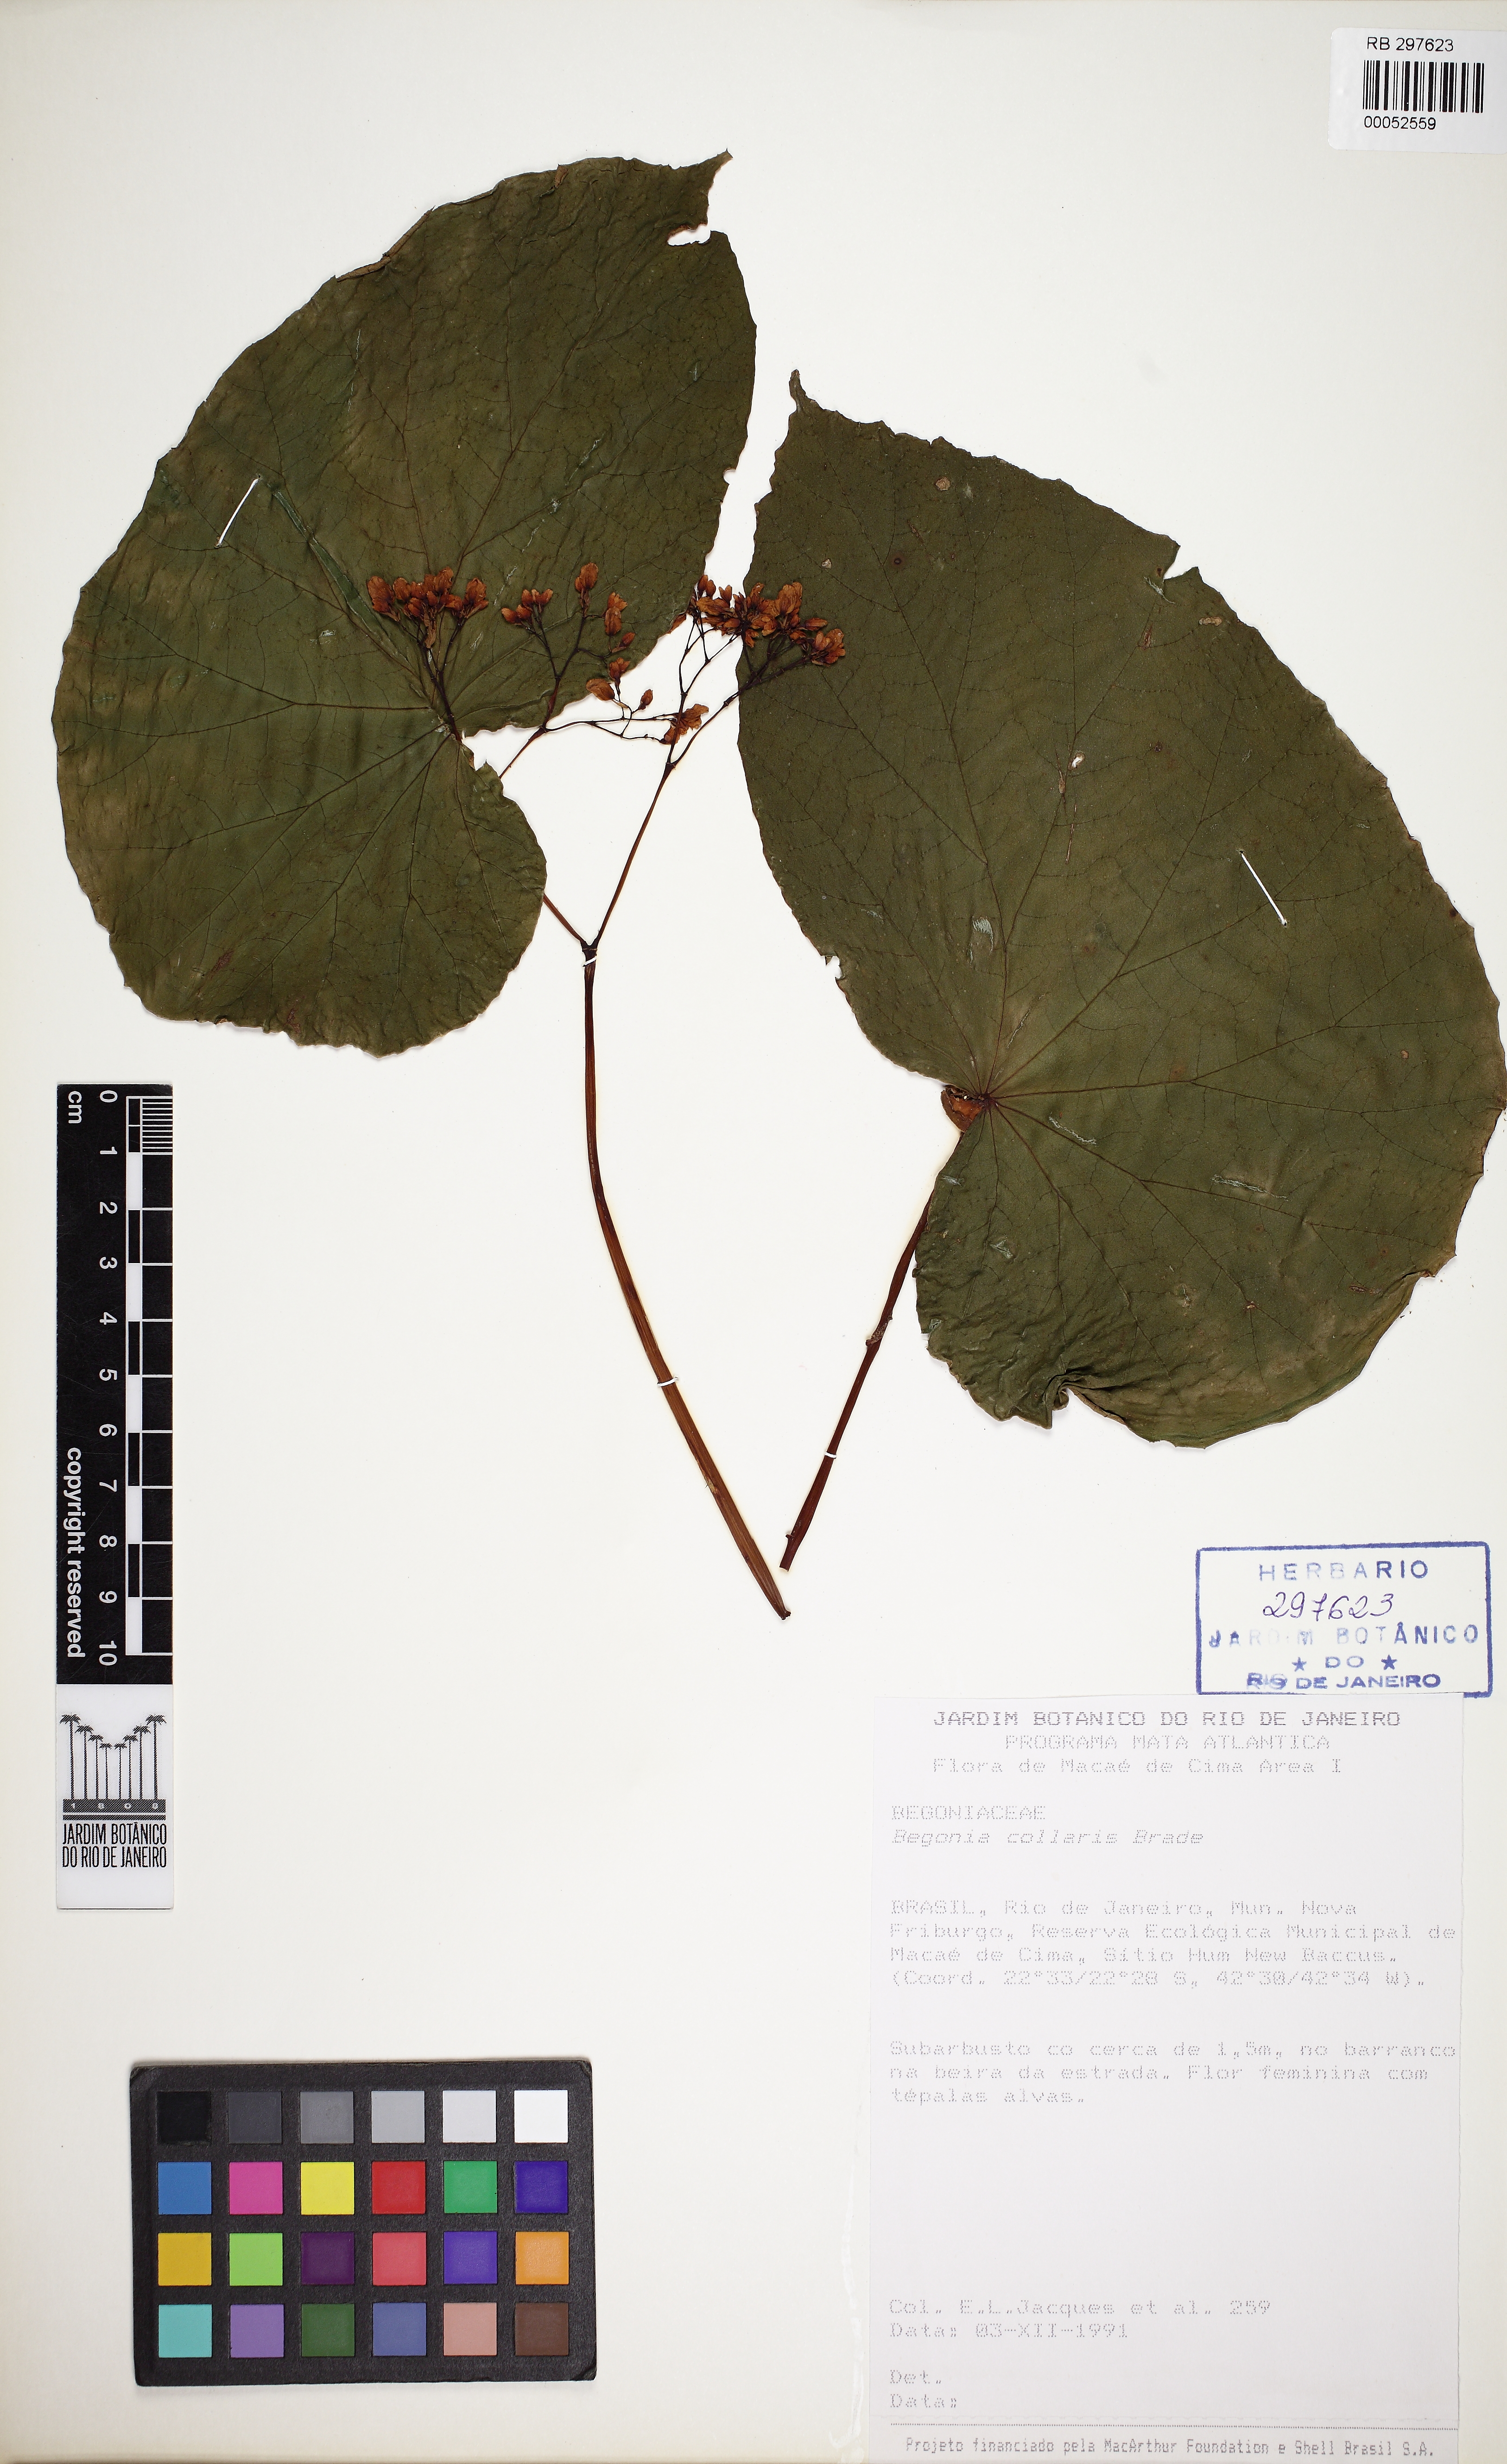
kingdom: Plantae
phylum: Tracheophyta
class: Magnoliopsida
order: Cucurbitales
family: Begoniaceae
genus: Begonia
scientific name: Begonia collaris
